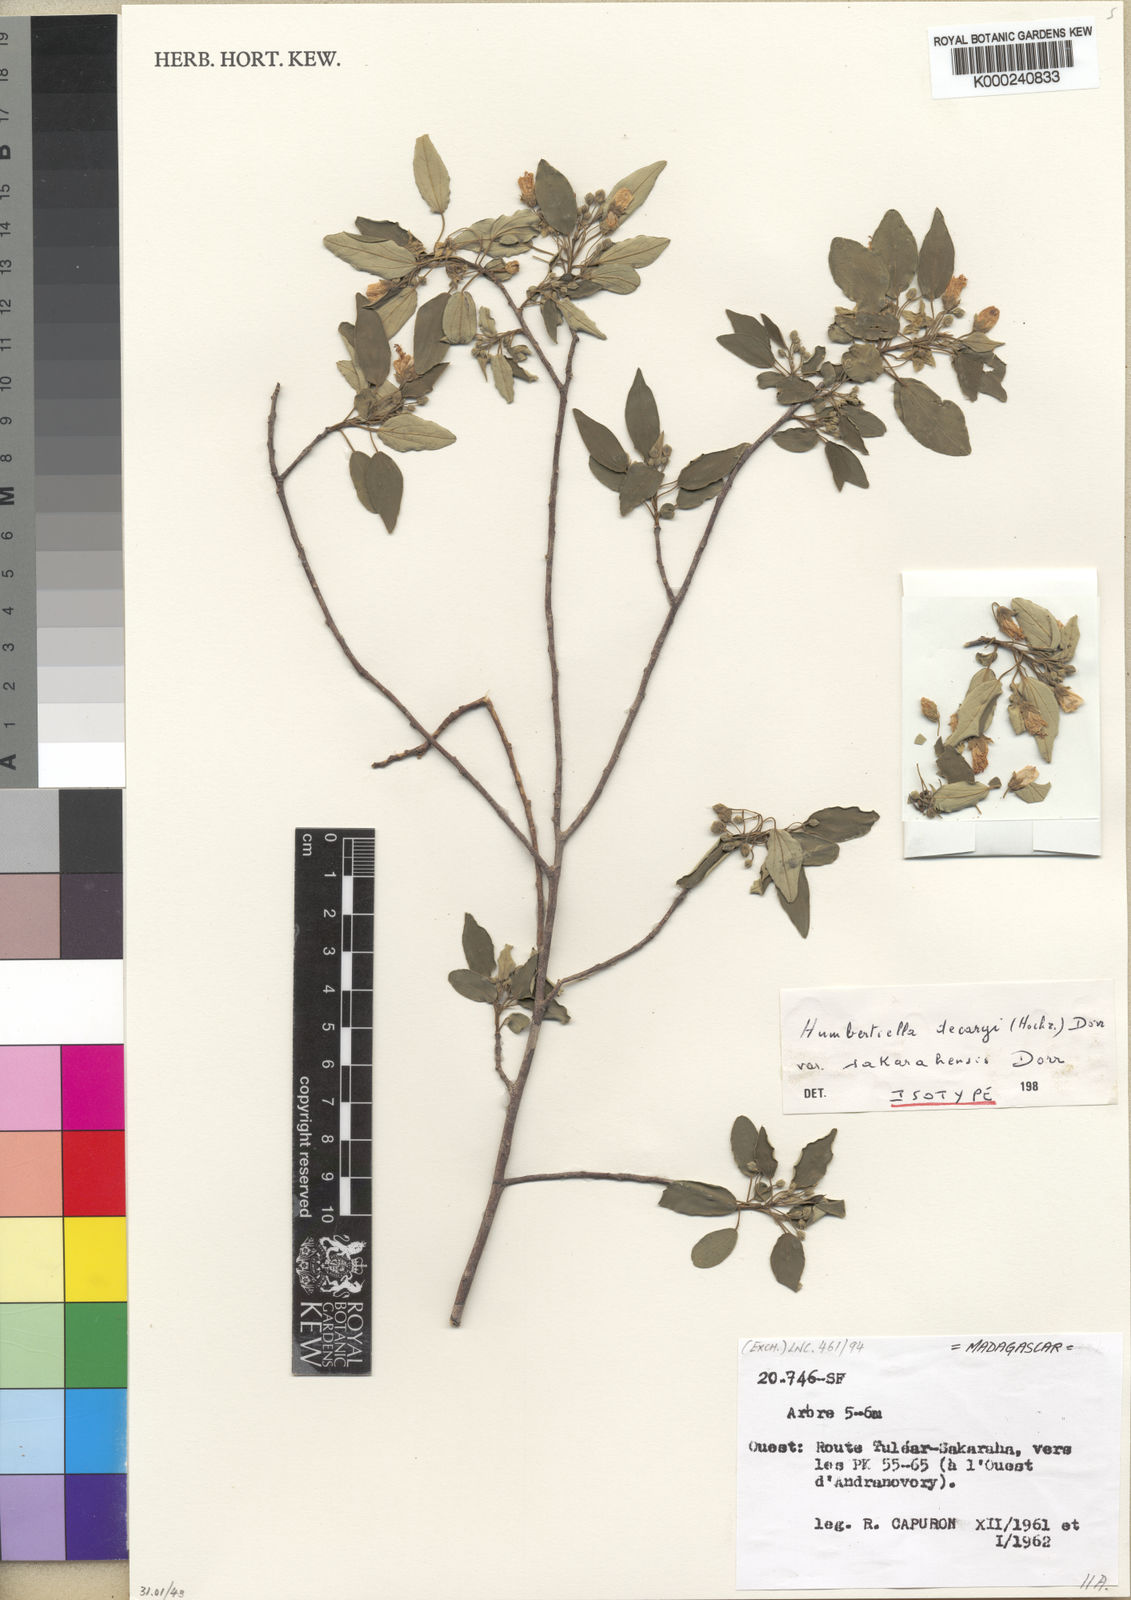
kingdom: Plantae
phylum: Tracheophyta
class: Magnoliopsida
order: Malvales
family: Malvaceae
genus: Humbertiella
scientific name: Humbertiella decaryi
